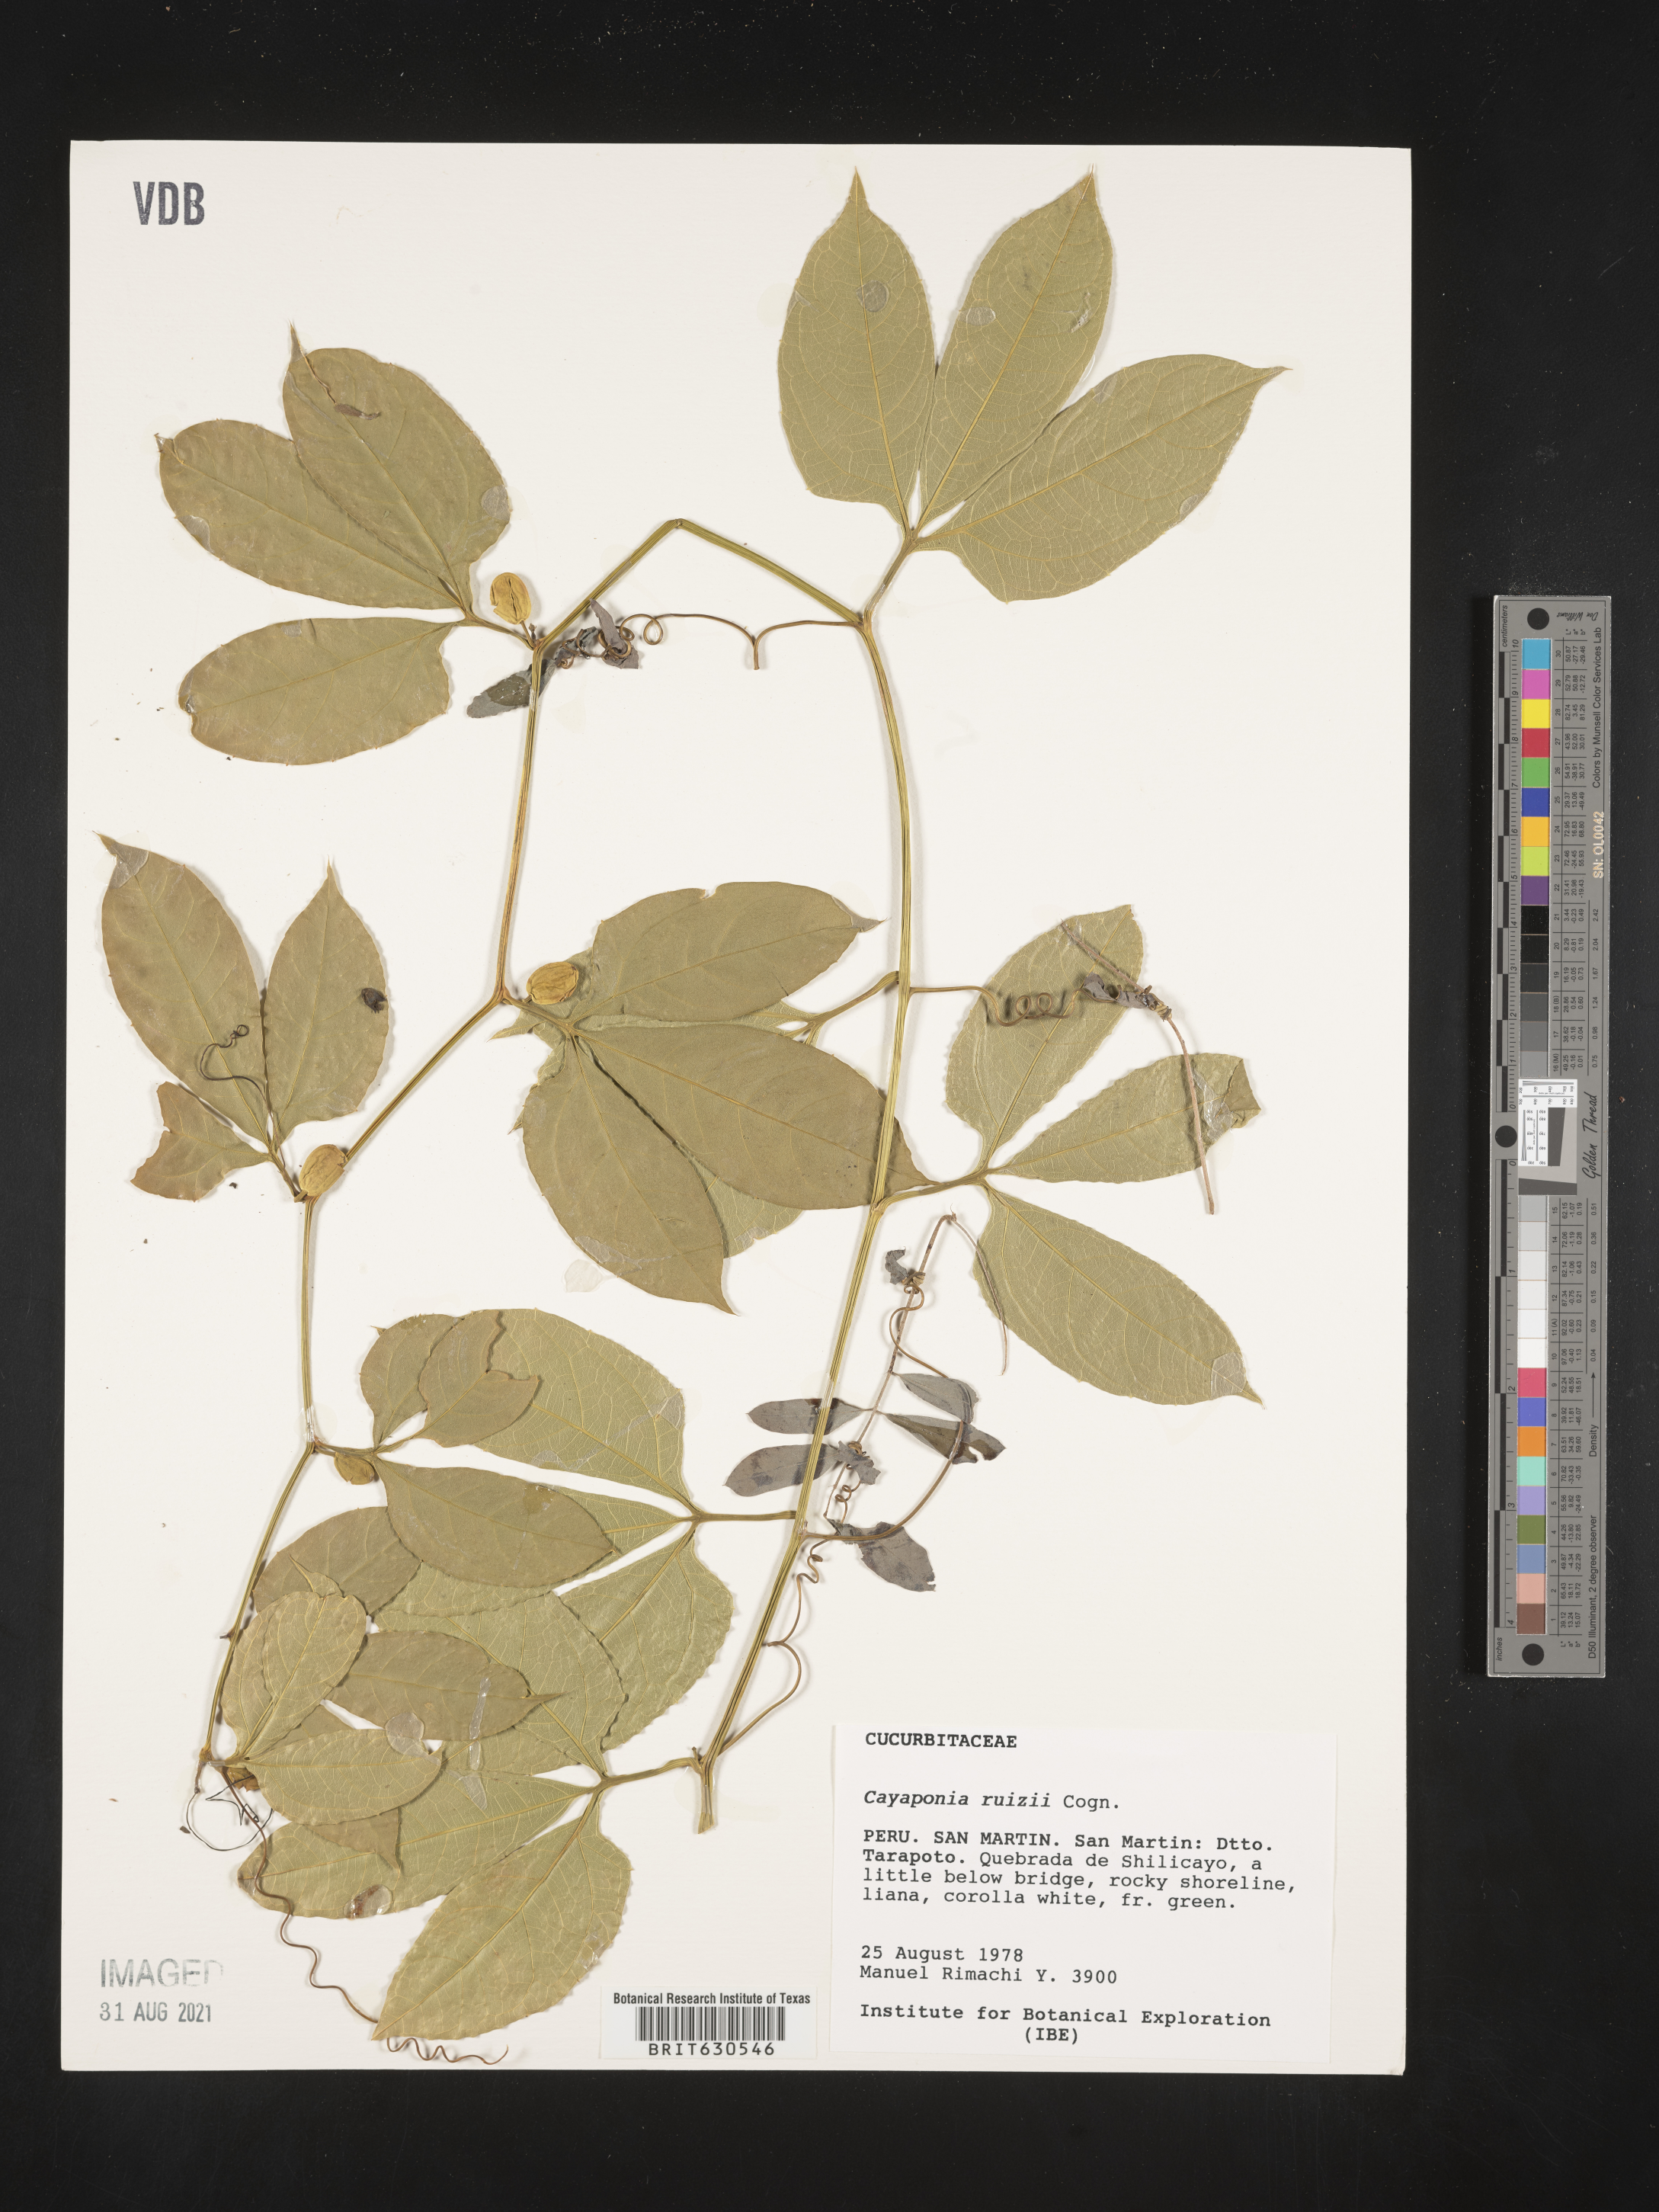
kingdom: Plantae
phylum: Tracheophyta
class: Magnoliopsida
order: Cucurbitales
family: Cucurbitaceae
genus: Cayaponia
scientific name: Cayaponia ruizii
